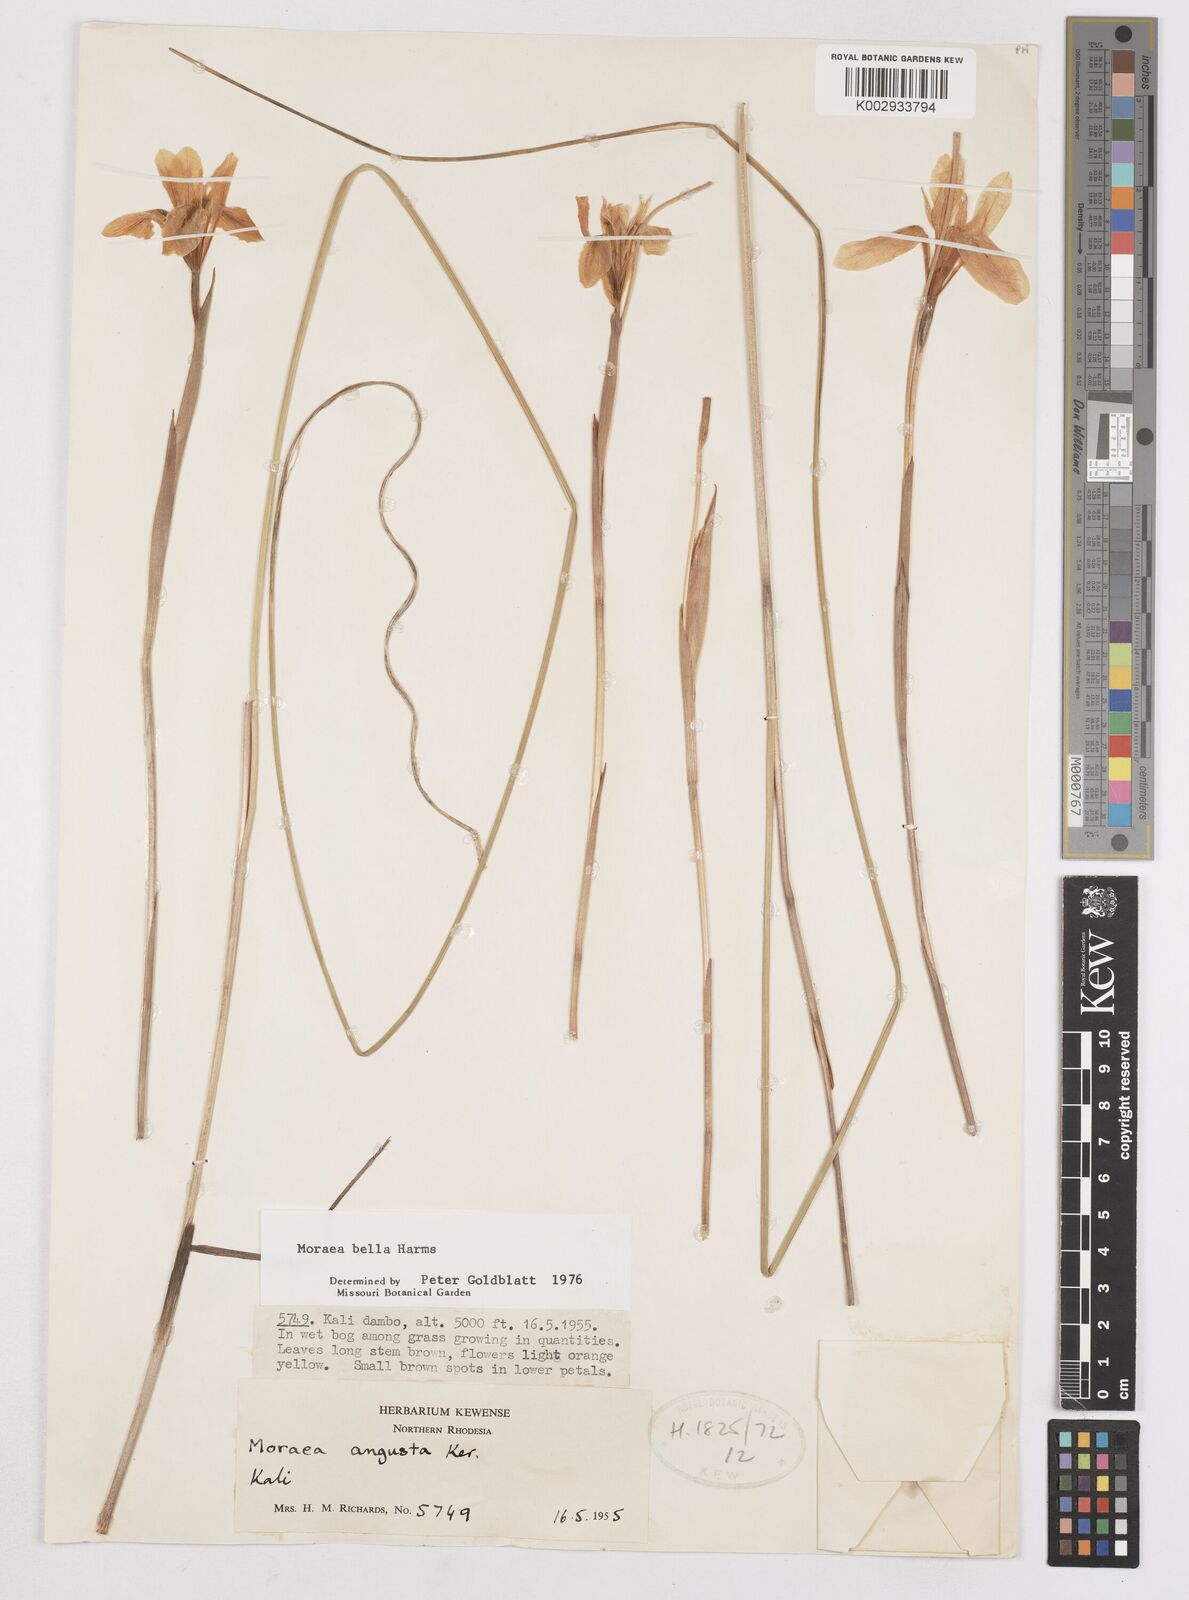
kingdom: Plantae
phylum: Tracheophyta
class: Liliopsida
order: Asparagales
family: Iridaceae
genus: Moraea
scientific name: Moraea bella
